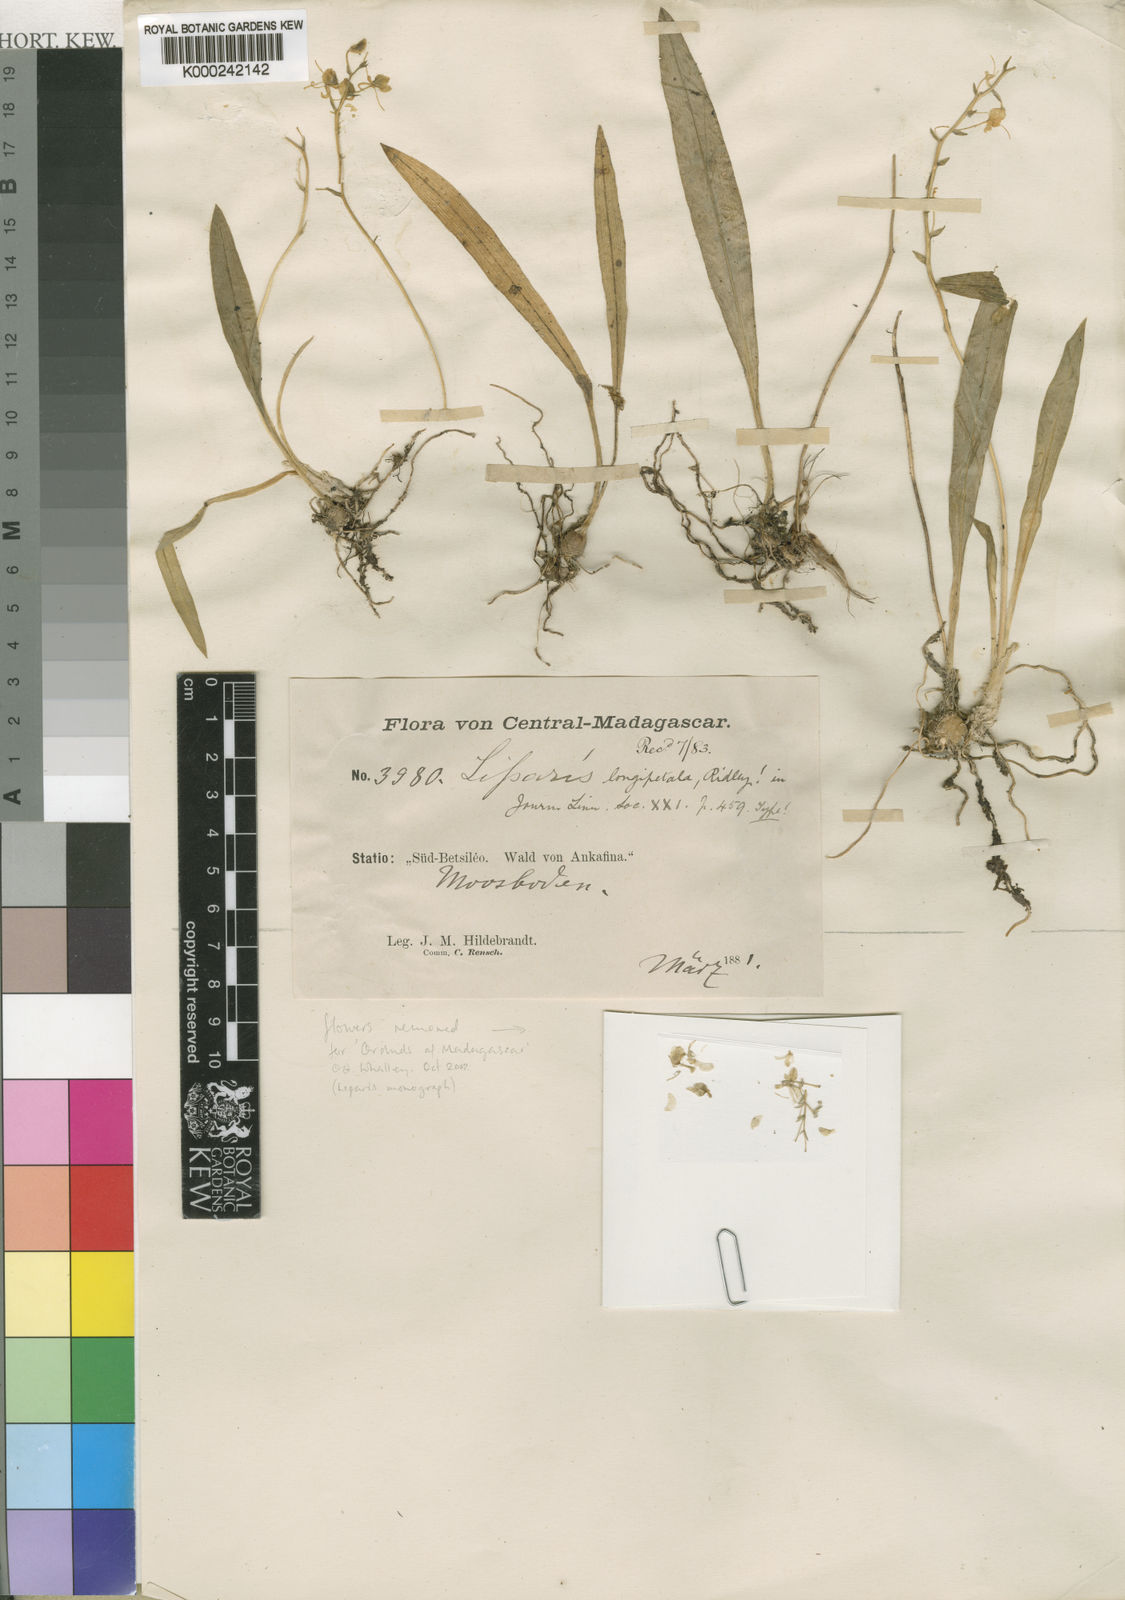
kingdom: Plantae
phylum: Tracheophyta
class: Liliopsida
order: Asparagales
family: Orchidaceae
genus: Liparis
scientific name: Liparis longipetala
